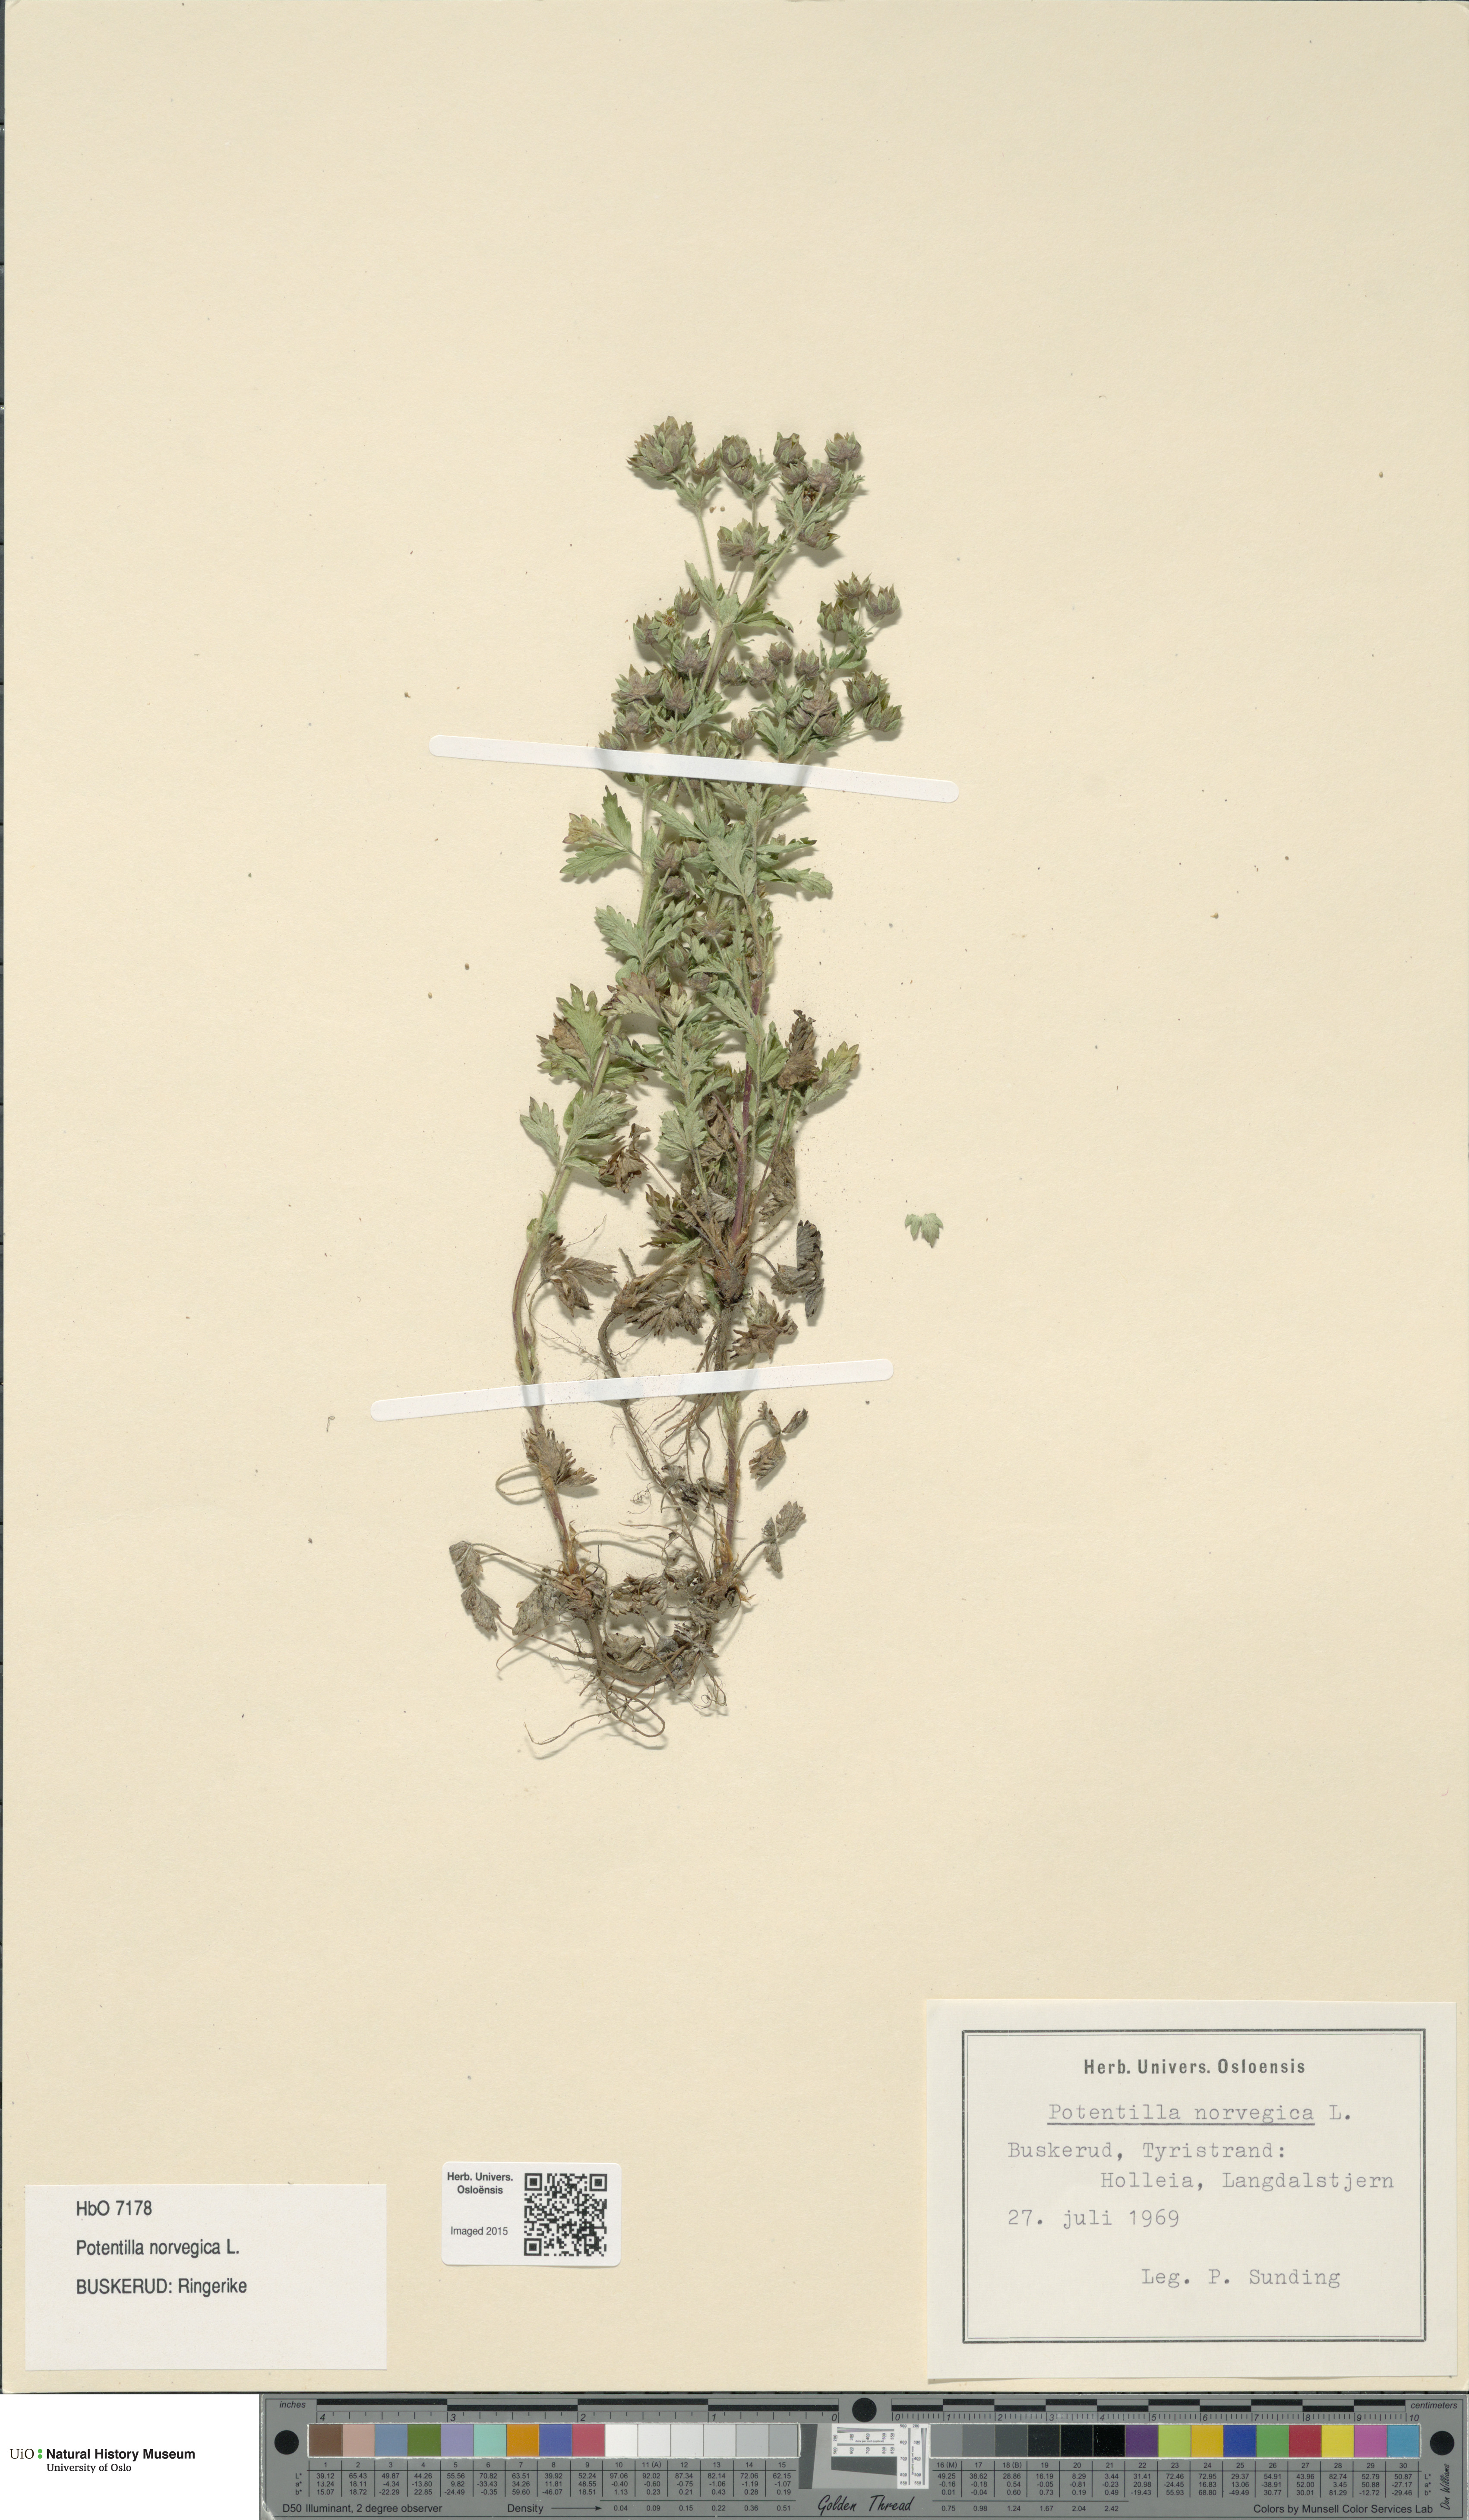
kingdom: Plantae
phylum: Tracheophyta
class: Magnoliopsida
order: Rosales
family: Rosaceae
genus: Potentilla
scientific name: Potentilla norvegica
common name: Ternate-leaved cinquefoil
